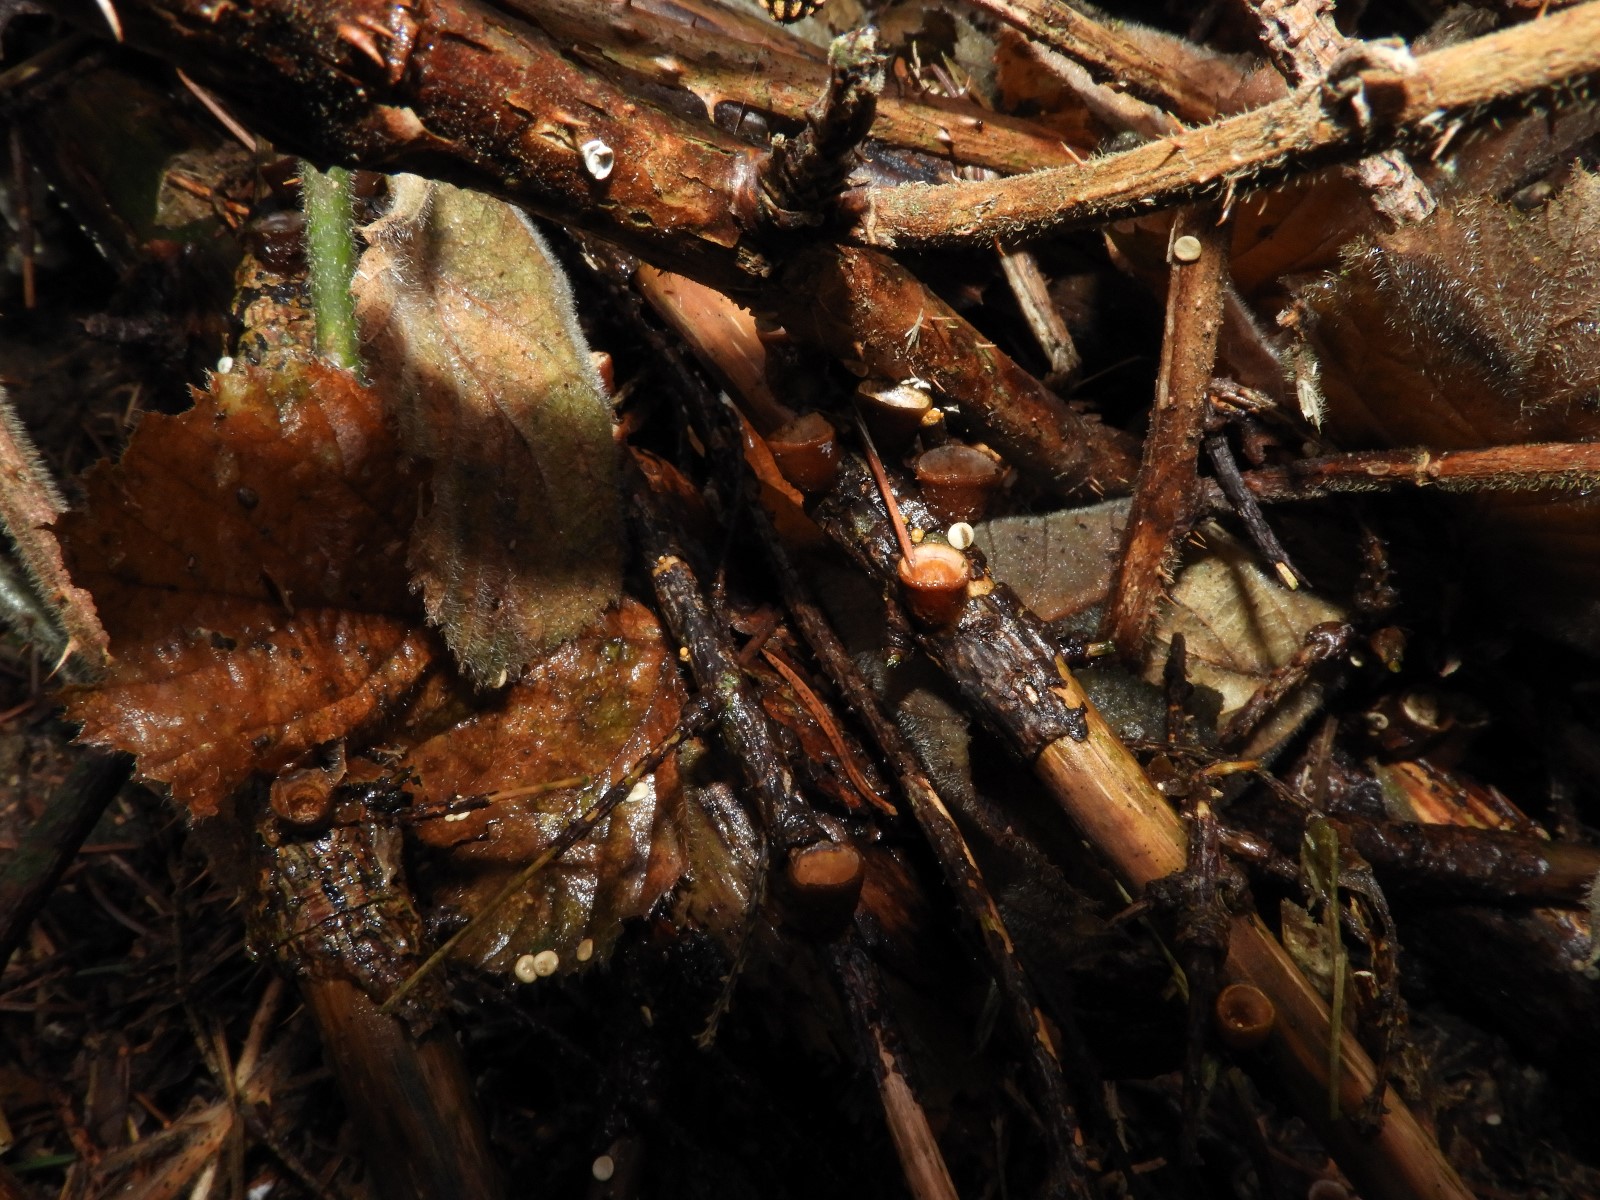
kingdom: Fungi
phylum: Basidiomycota
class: Agaricomycetes
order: Agaricales
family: Nidulariaceae
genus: Crucibulum
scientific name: Crucibulum crucibuliforme
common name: krukkesvamp
